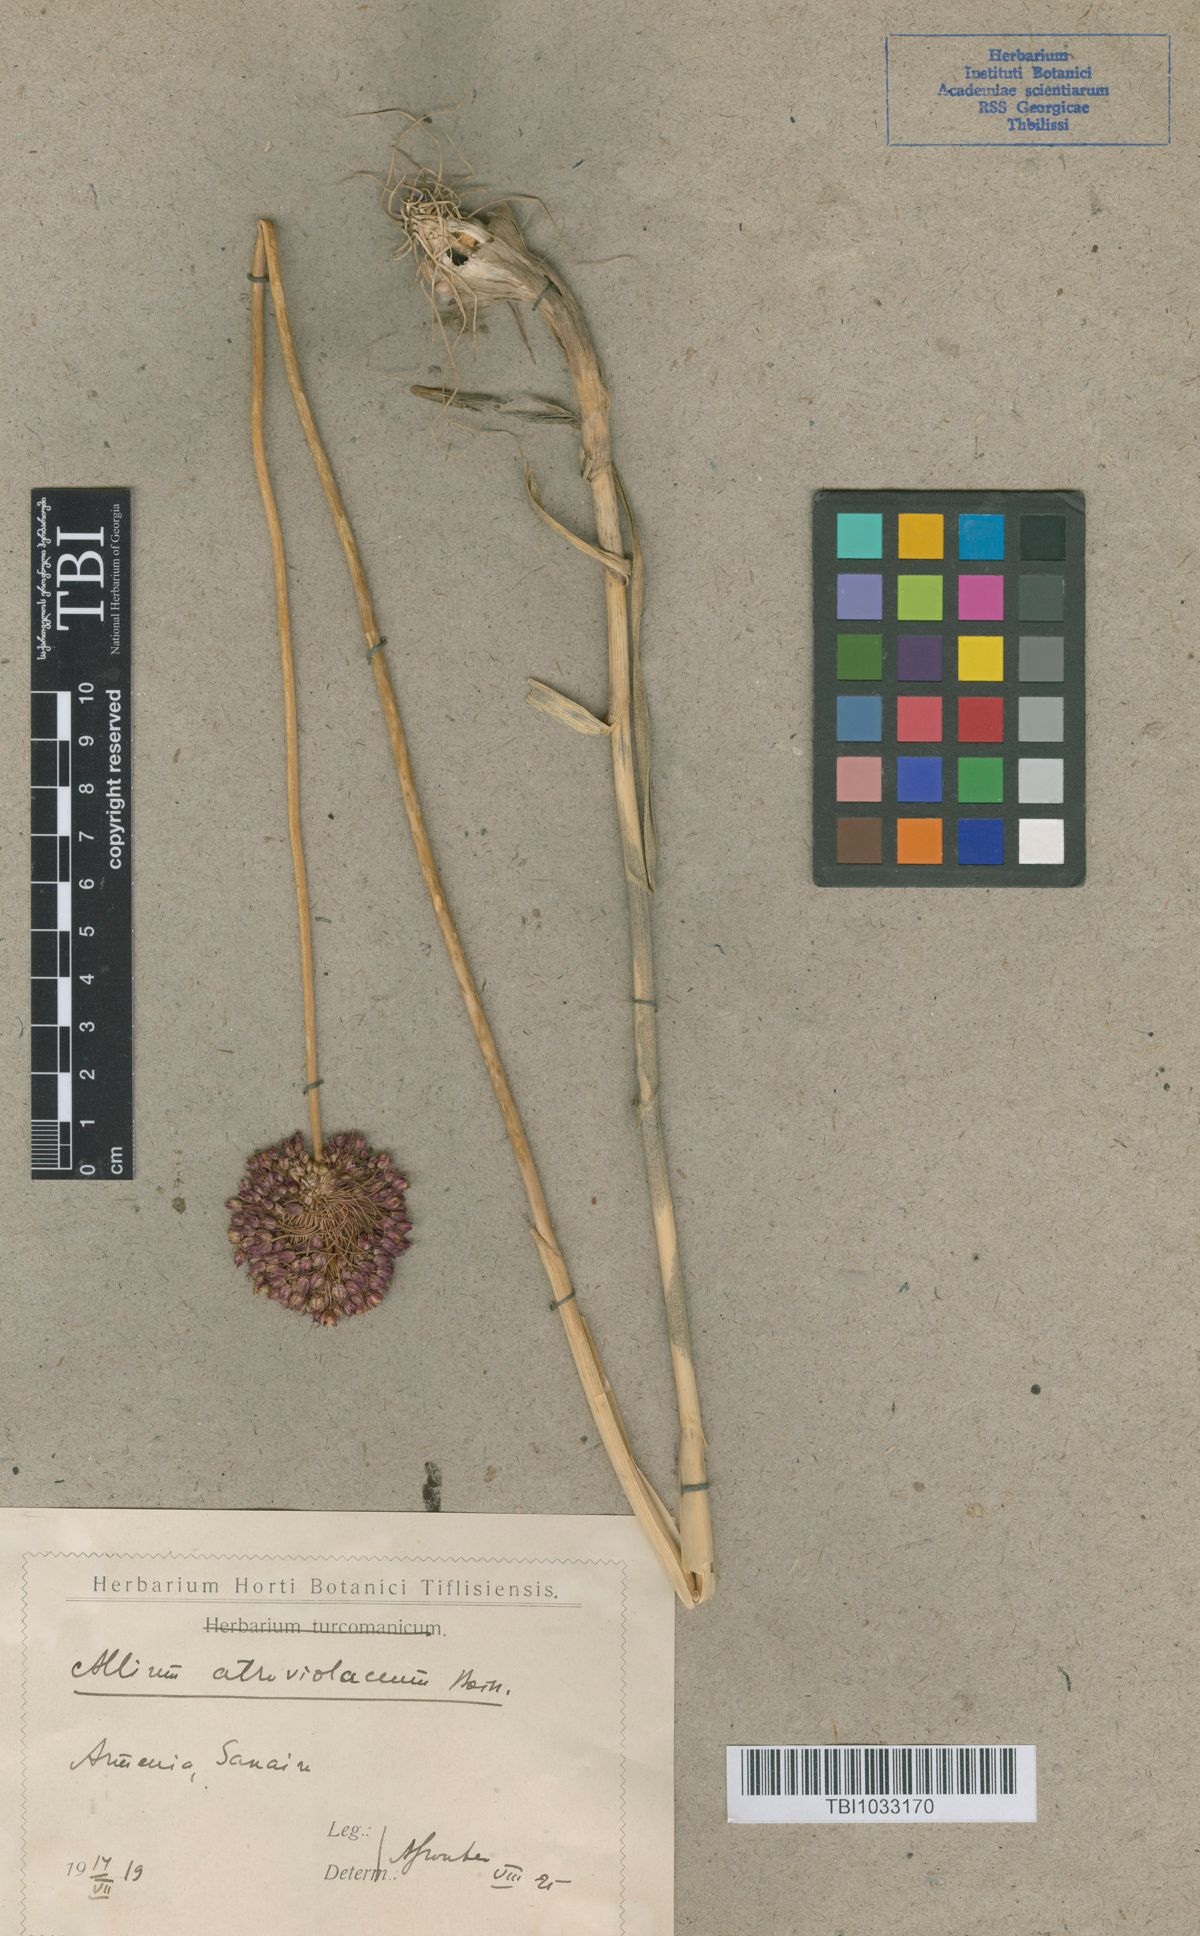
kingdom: Plantae
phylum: Tracheophyta
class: Liliopsida
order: Asparagales
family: Amaryllidaceae
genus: Allium
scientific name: Allium atroviolaceum
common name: Broadleaf wild leek
